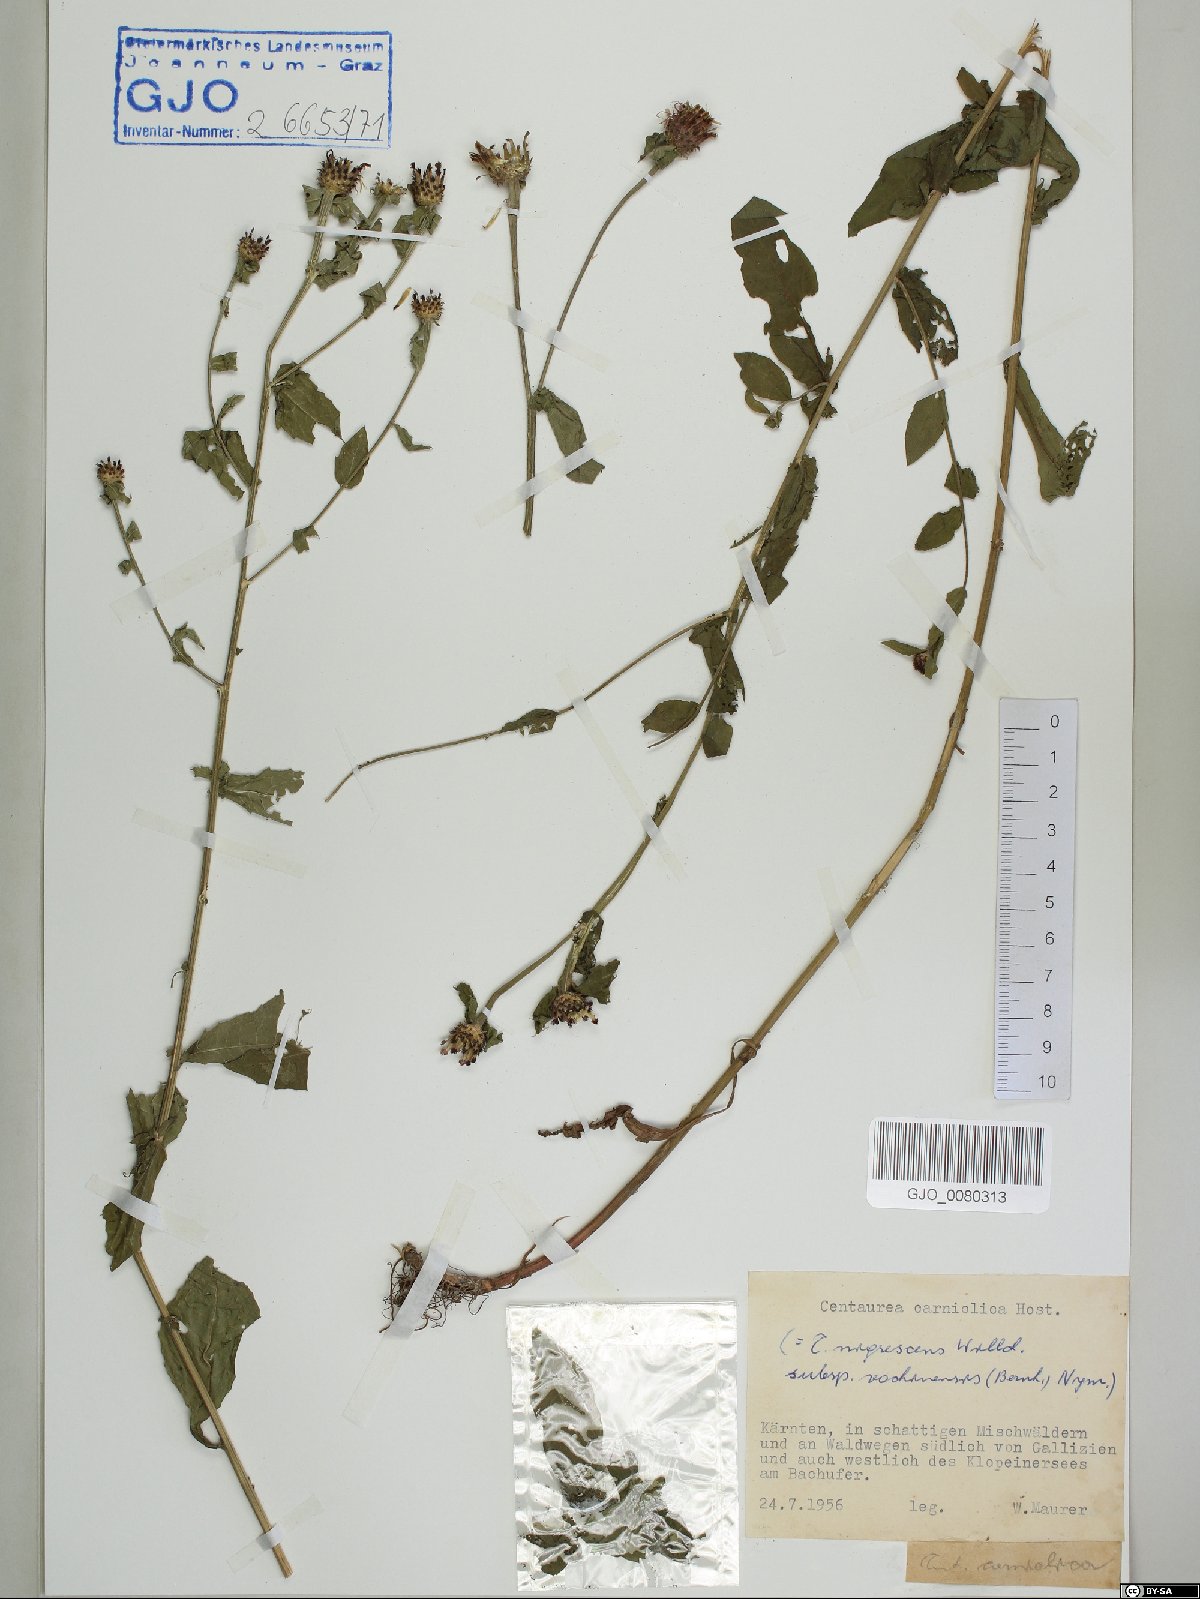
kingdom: Plantae
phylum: Tracheophyta
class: Magnoliopsida
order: Asterales
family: Asteraceae
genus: Centaurea
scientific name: Centaurea carniolica
